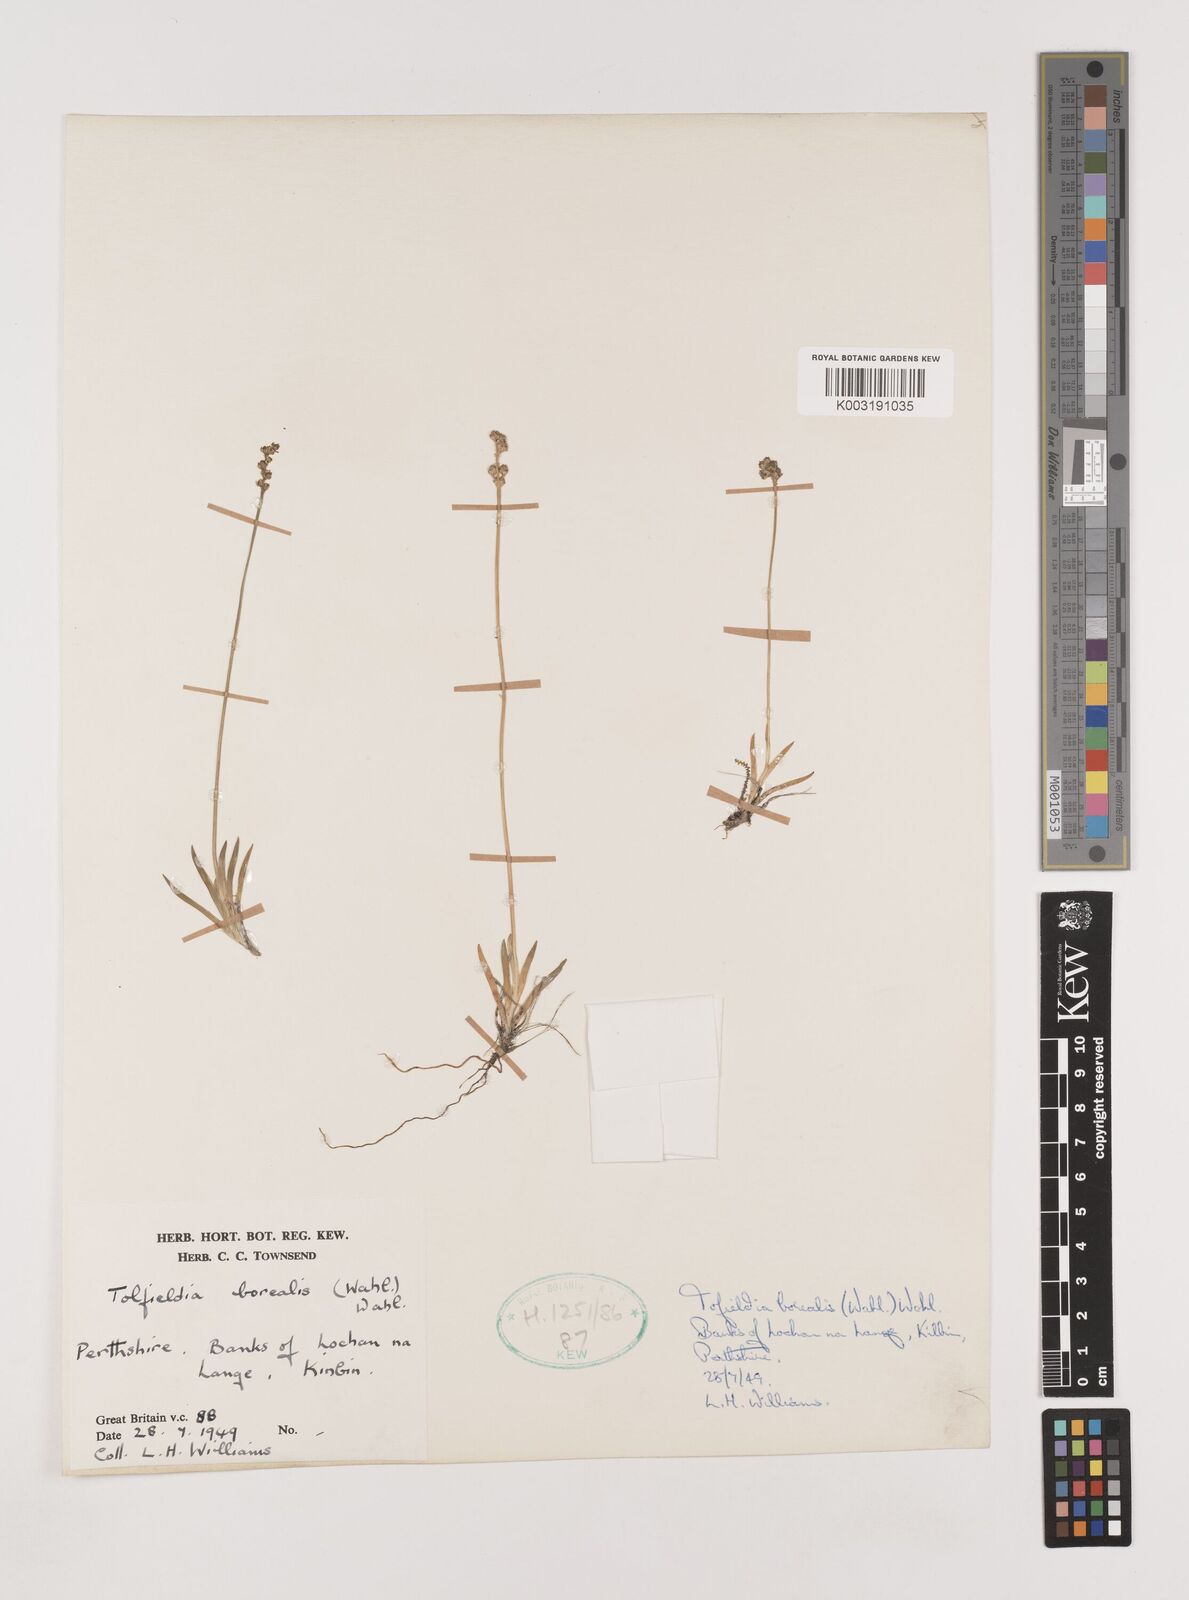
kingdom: Plantae
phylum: Tracheophyta
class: Liliopsida
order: Alismatales
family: Tofieldiaceae
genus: Tofieldia
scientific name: Tofieldia pusilla
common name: Scottish false asphodel
